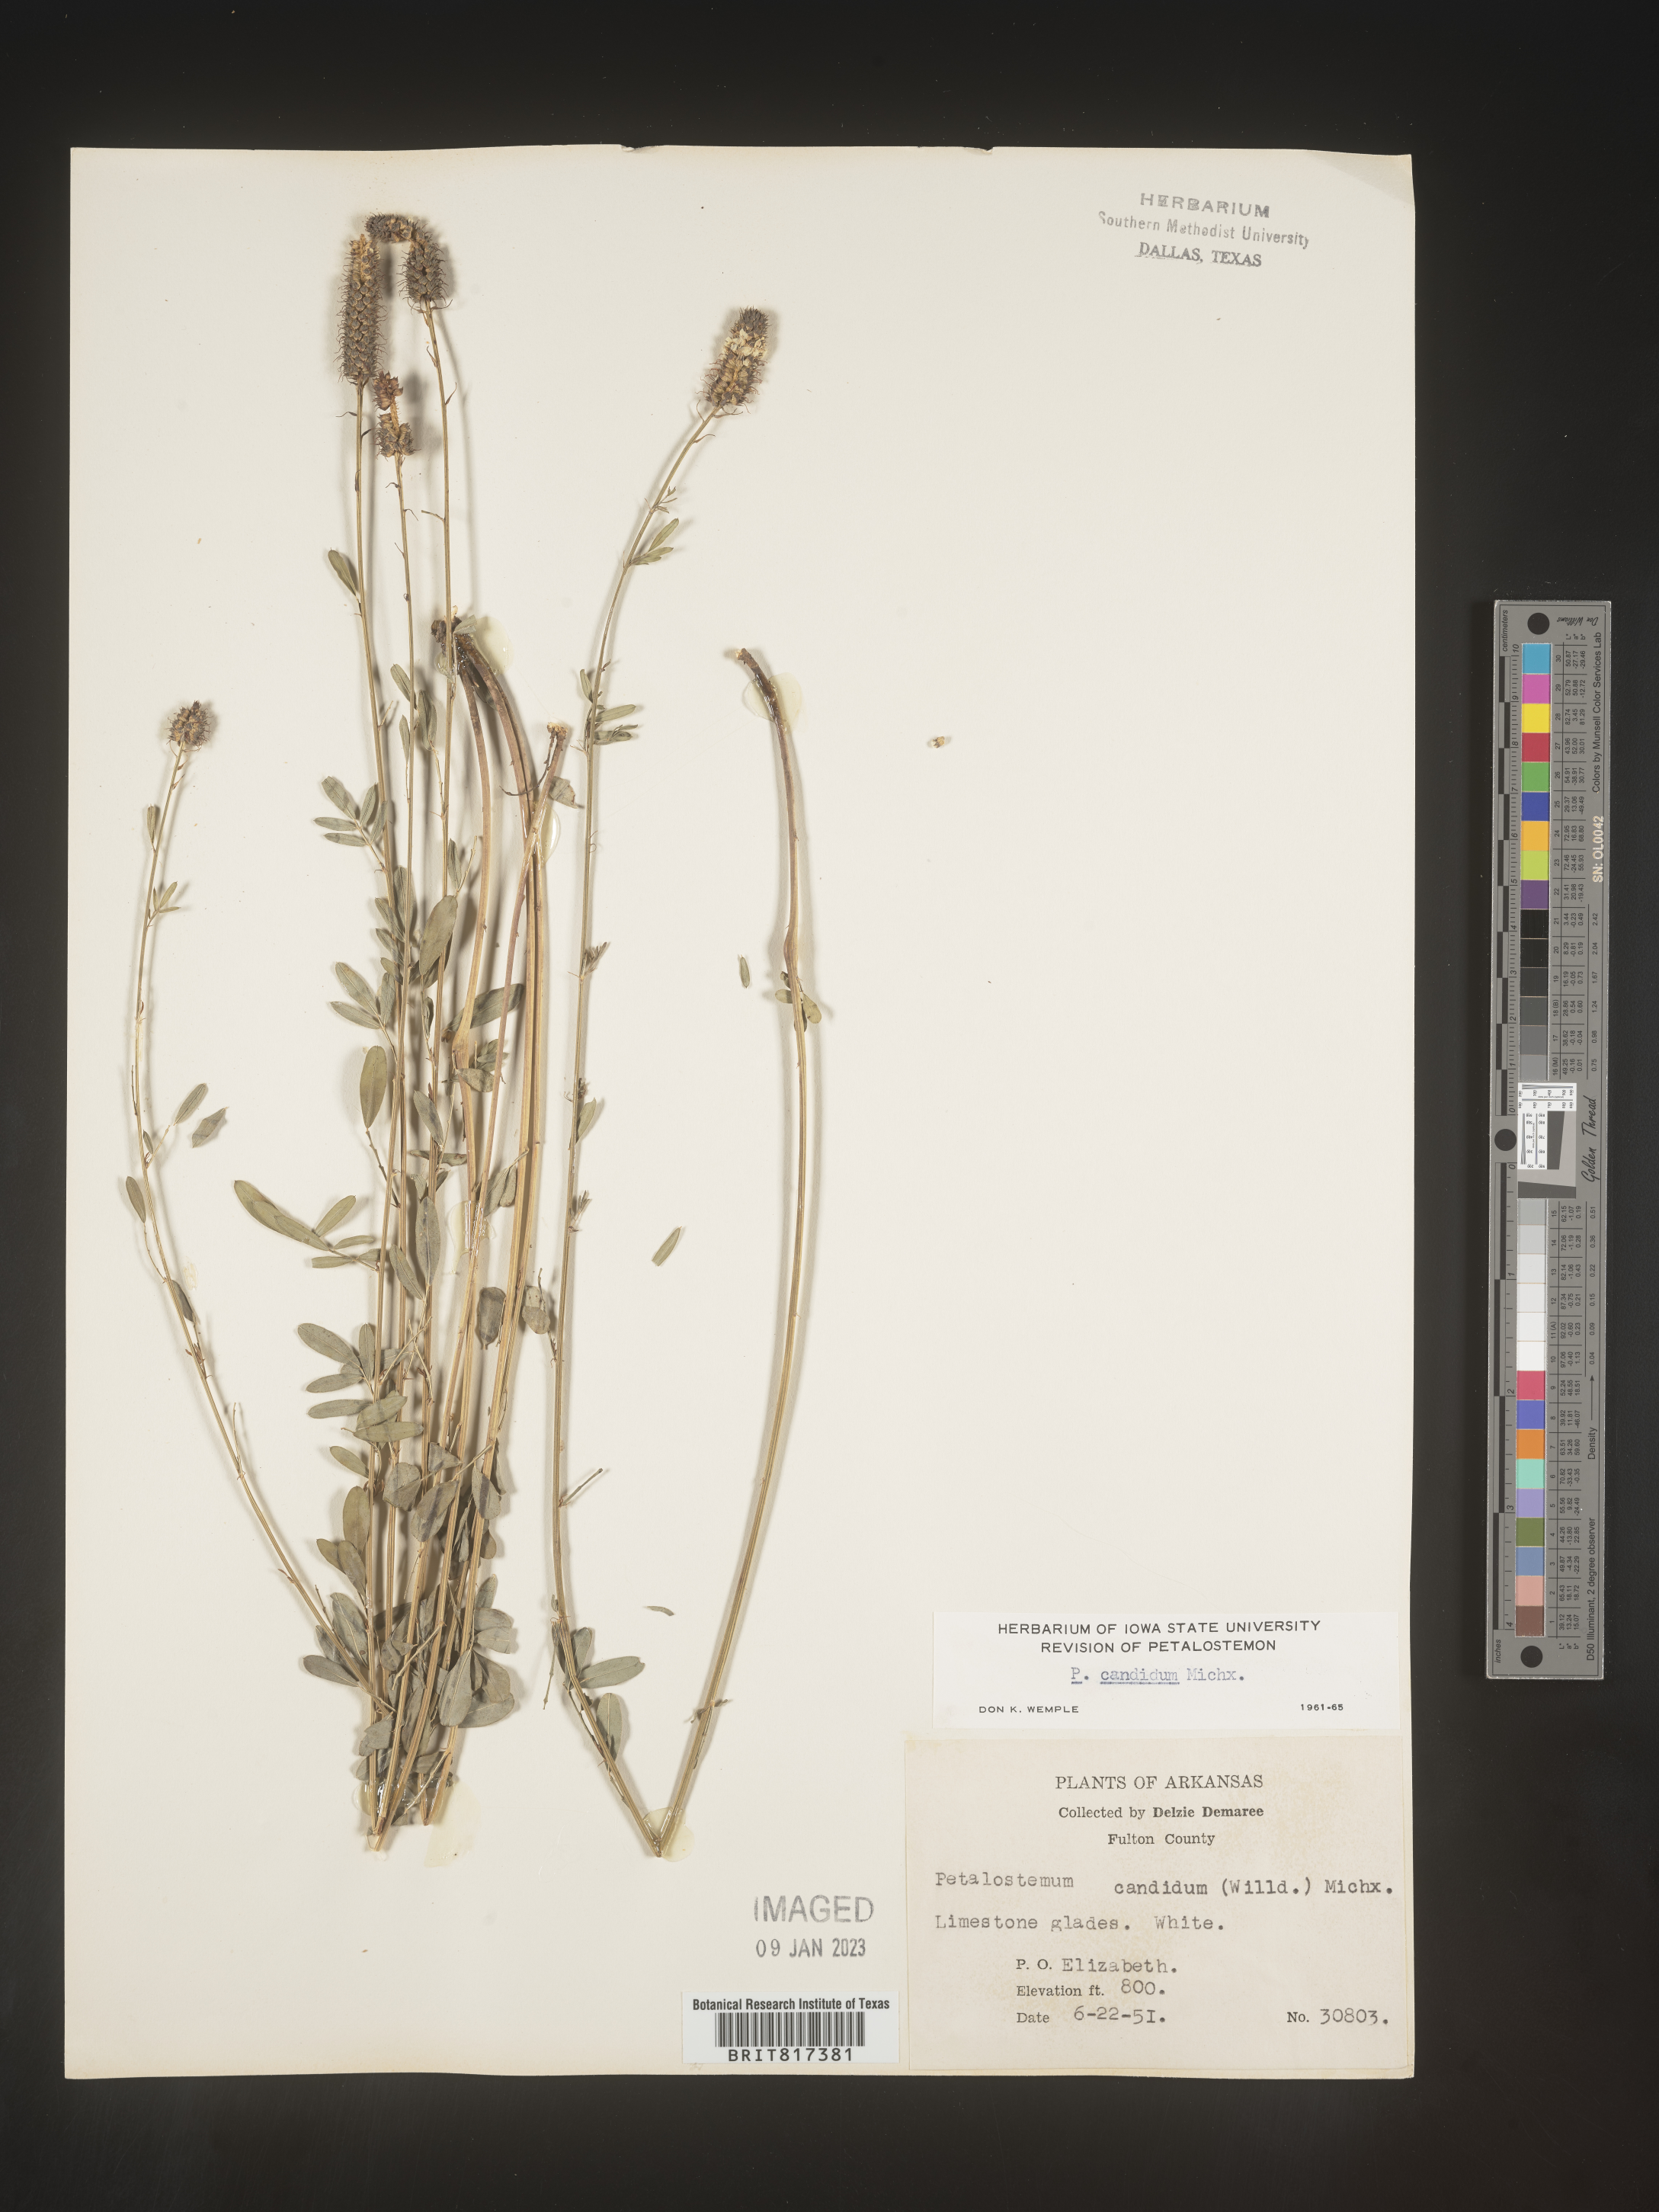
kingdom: Plantae
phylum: Tracheophyta
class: Magnoliopsida
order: Fabales
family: Fabaceae
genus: Dalea
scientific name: Dalea candida
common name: White prairie-clover
